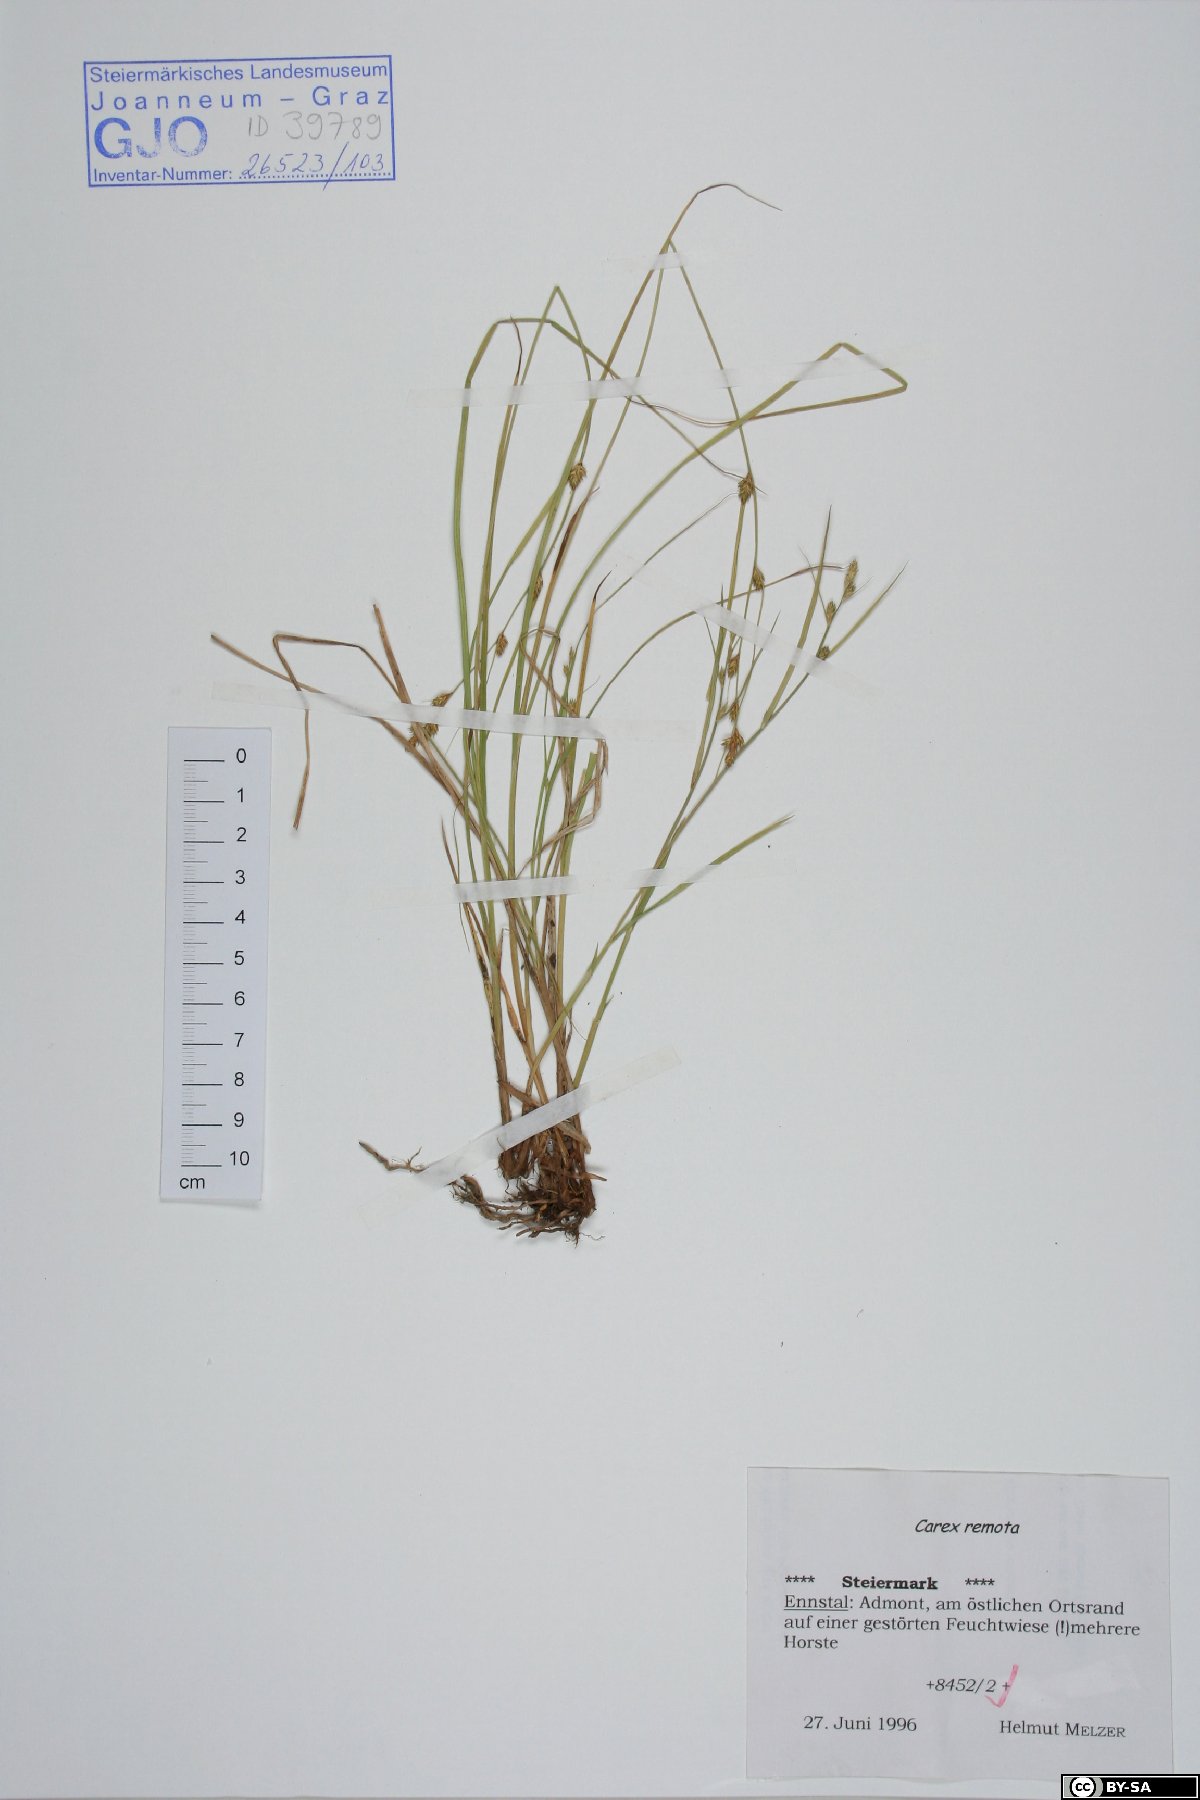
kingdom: Plantae
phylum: Tracheophyta
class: Liliopsida
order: Poales
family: Cyperaceae
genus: Carex
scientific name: Carex remota
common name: Remote sedge
